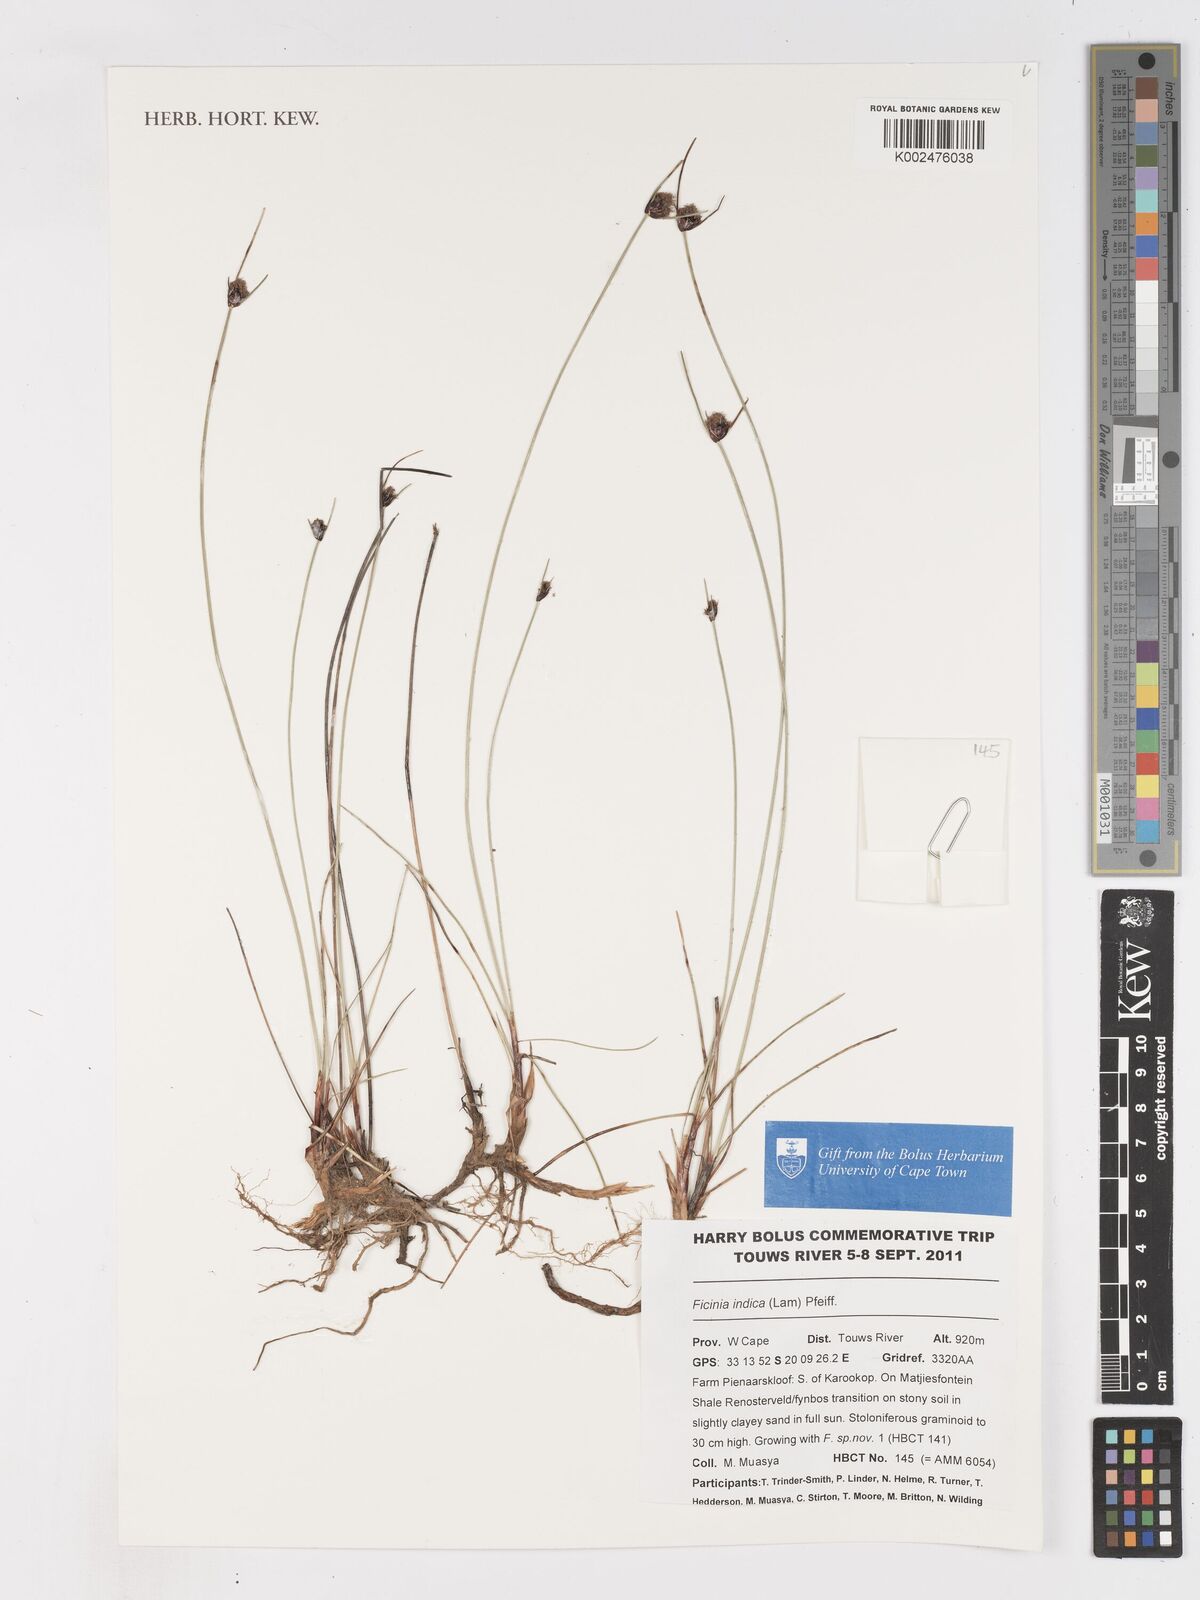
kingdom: Plantae
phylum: Tracheophyta
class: Liliopsida
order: Poales
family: Cyperaceae
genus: Ficinia
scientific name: Ficinia indica
